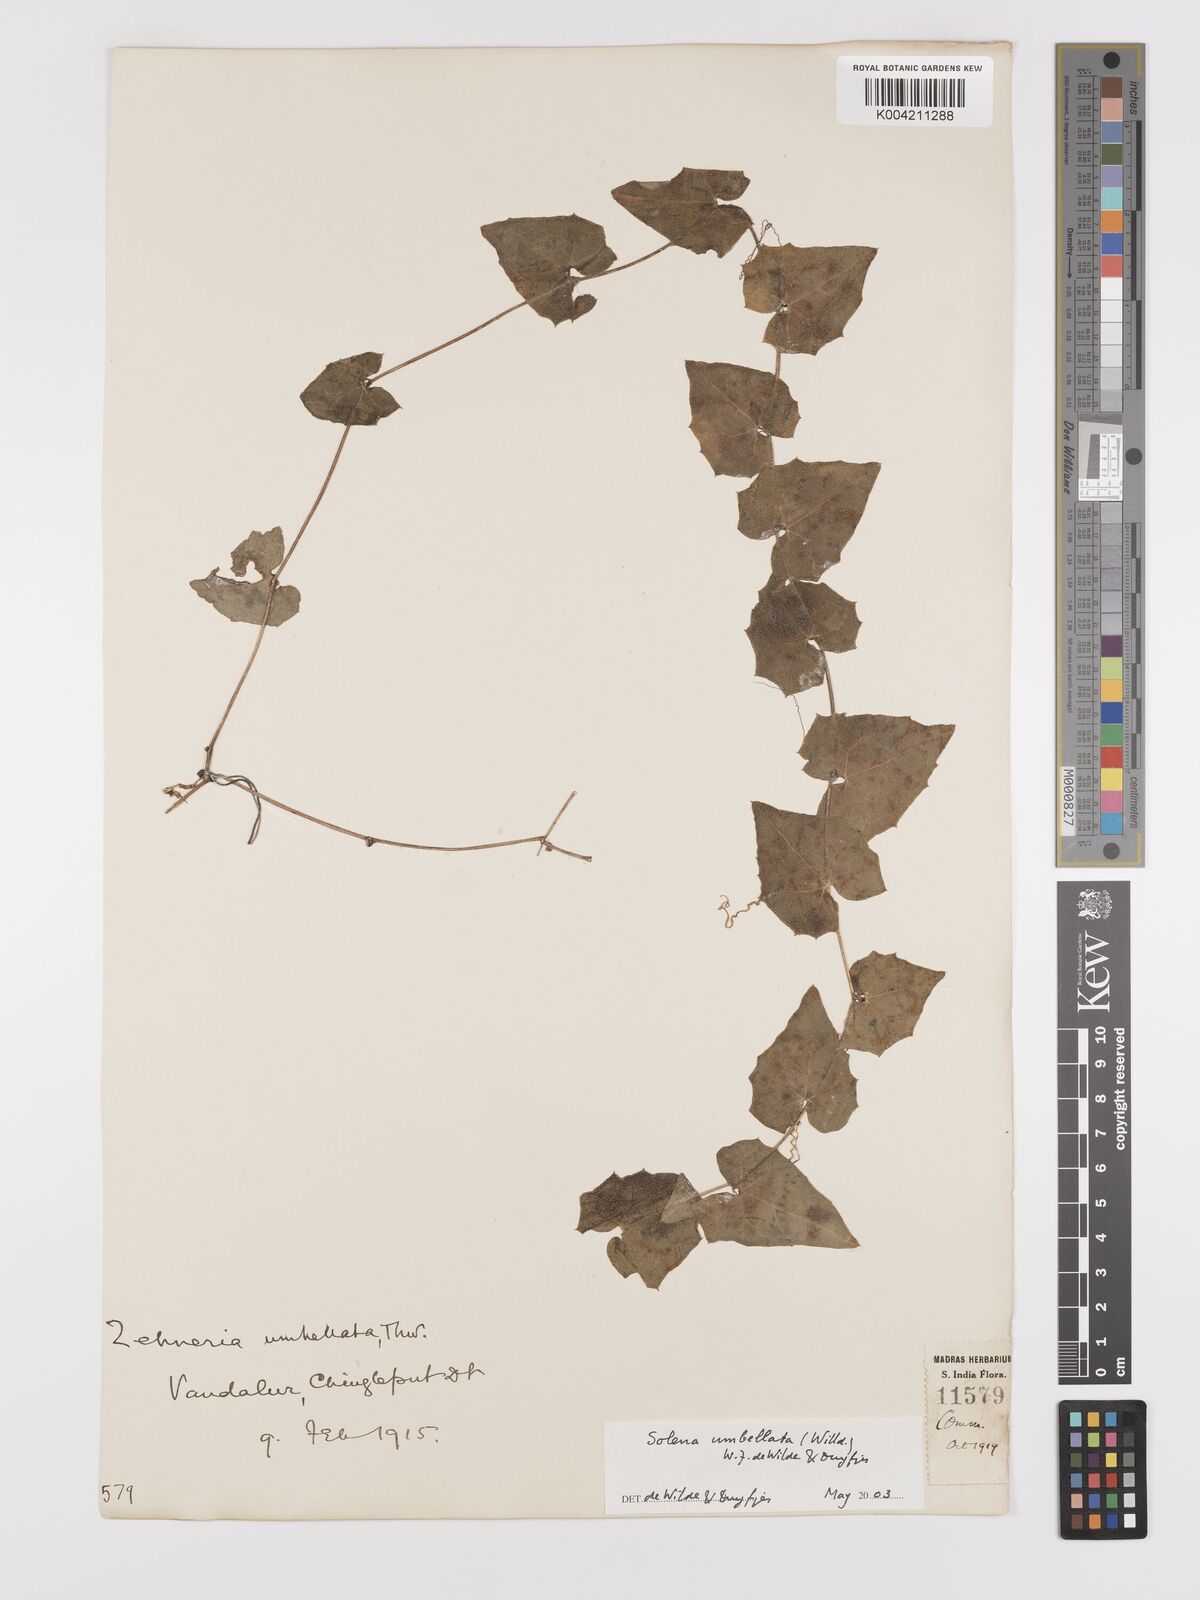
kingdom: Plantae
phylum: Tracheophyta
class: Magnoliopsida
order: Cucurbitales
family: Cucurbitaceae
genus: Solena
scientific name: Solena amplexicaulis
